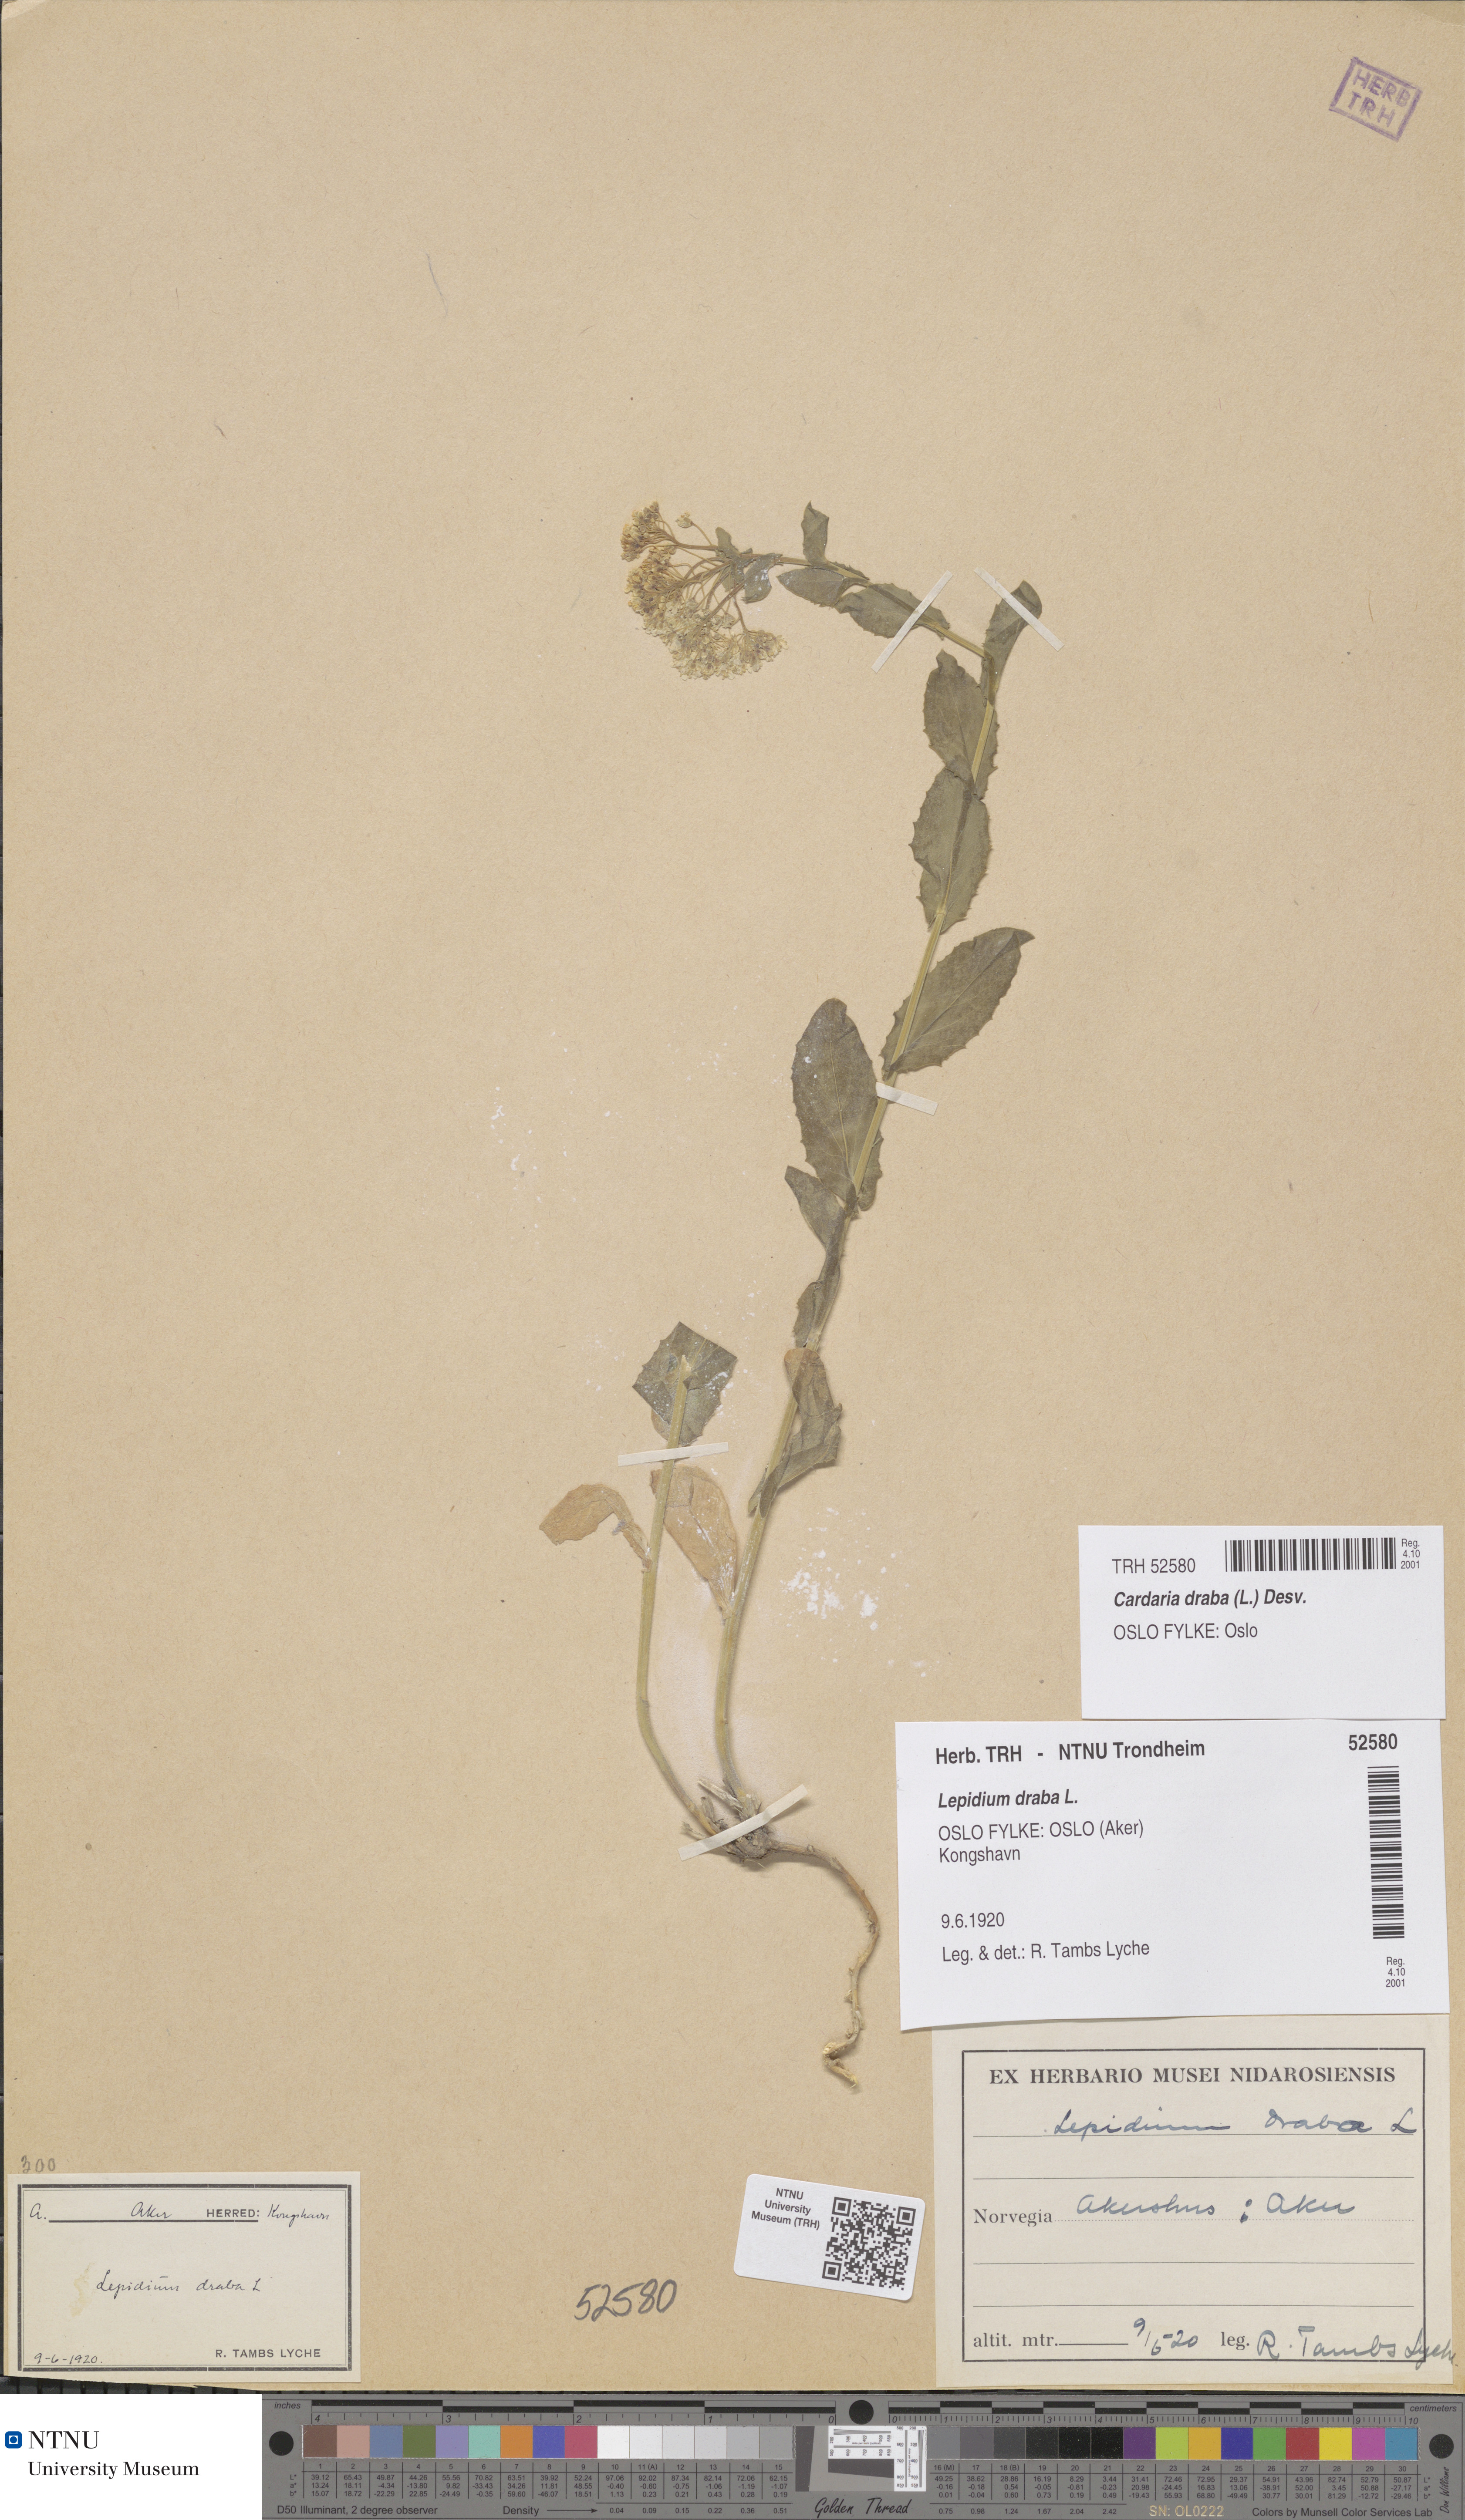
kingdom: Plantae
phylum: Tracheophyta
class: Magnoliopsida
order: Brassicales
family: Brassicaceae
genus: Lepidium
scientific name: Lepidium draba
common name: Hoary cress
